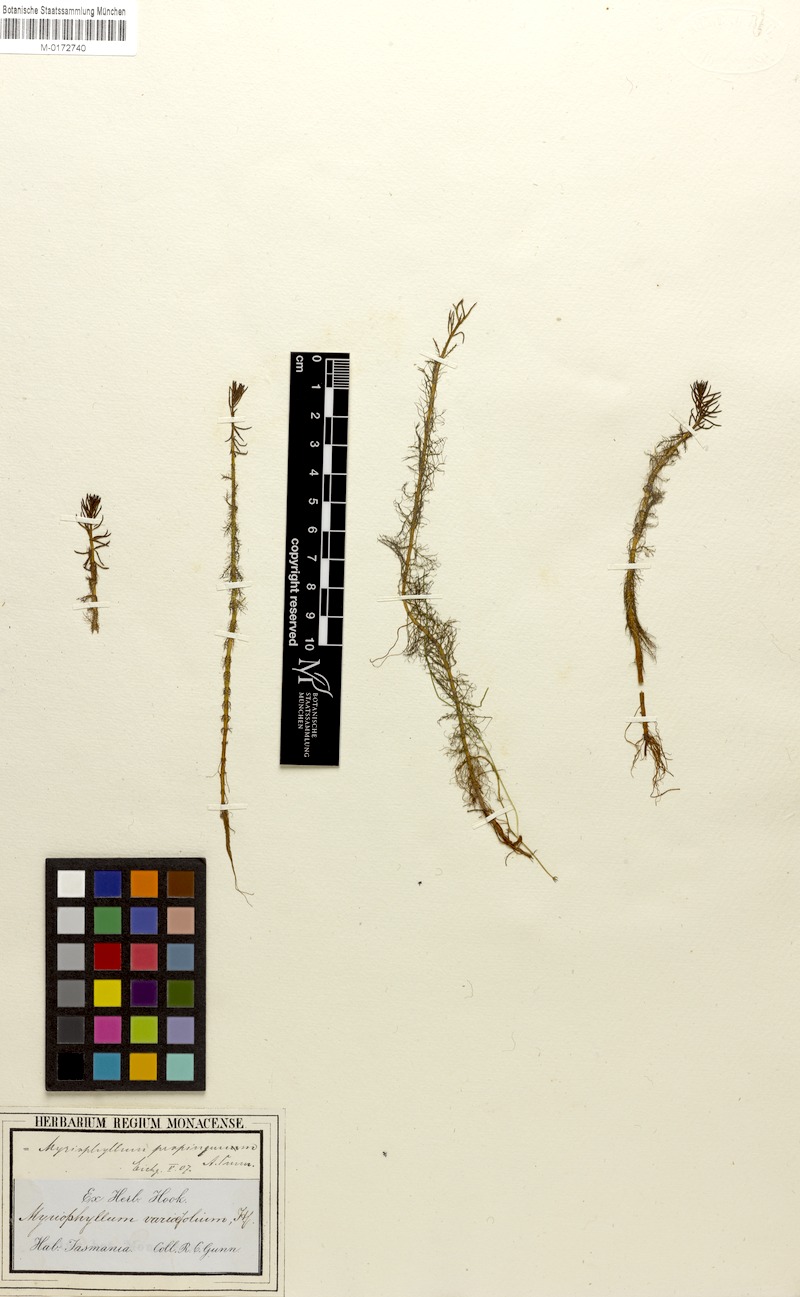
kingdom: Plantae
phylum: Tracheophyta
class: Magnoliopsida
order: Saxifragales
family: Haloragaceae
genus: Myriophyllum
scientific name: Myriophyllum propinquum
